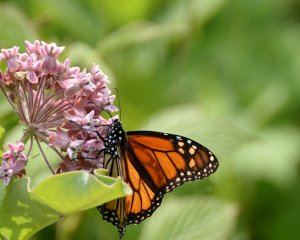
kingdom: Animalia
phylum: Arthropoda
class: Insecta
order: Lepidoptera
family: Nymphalidae
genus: Danaus
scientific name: Danaus plexippus
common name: Monarch
